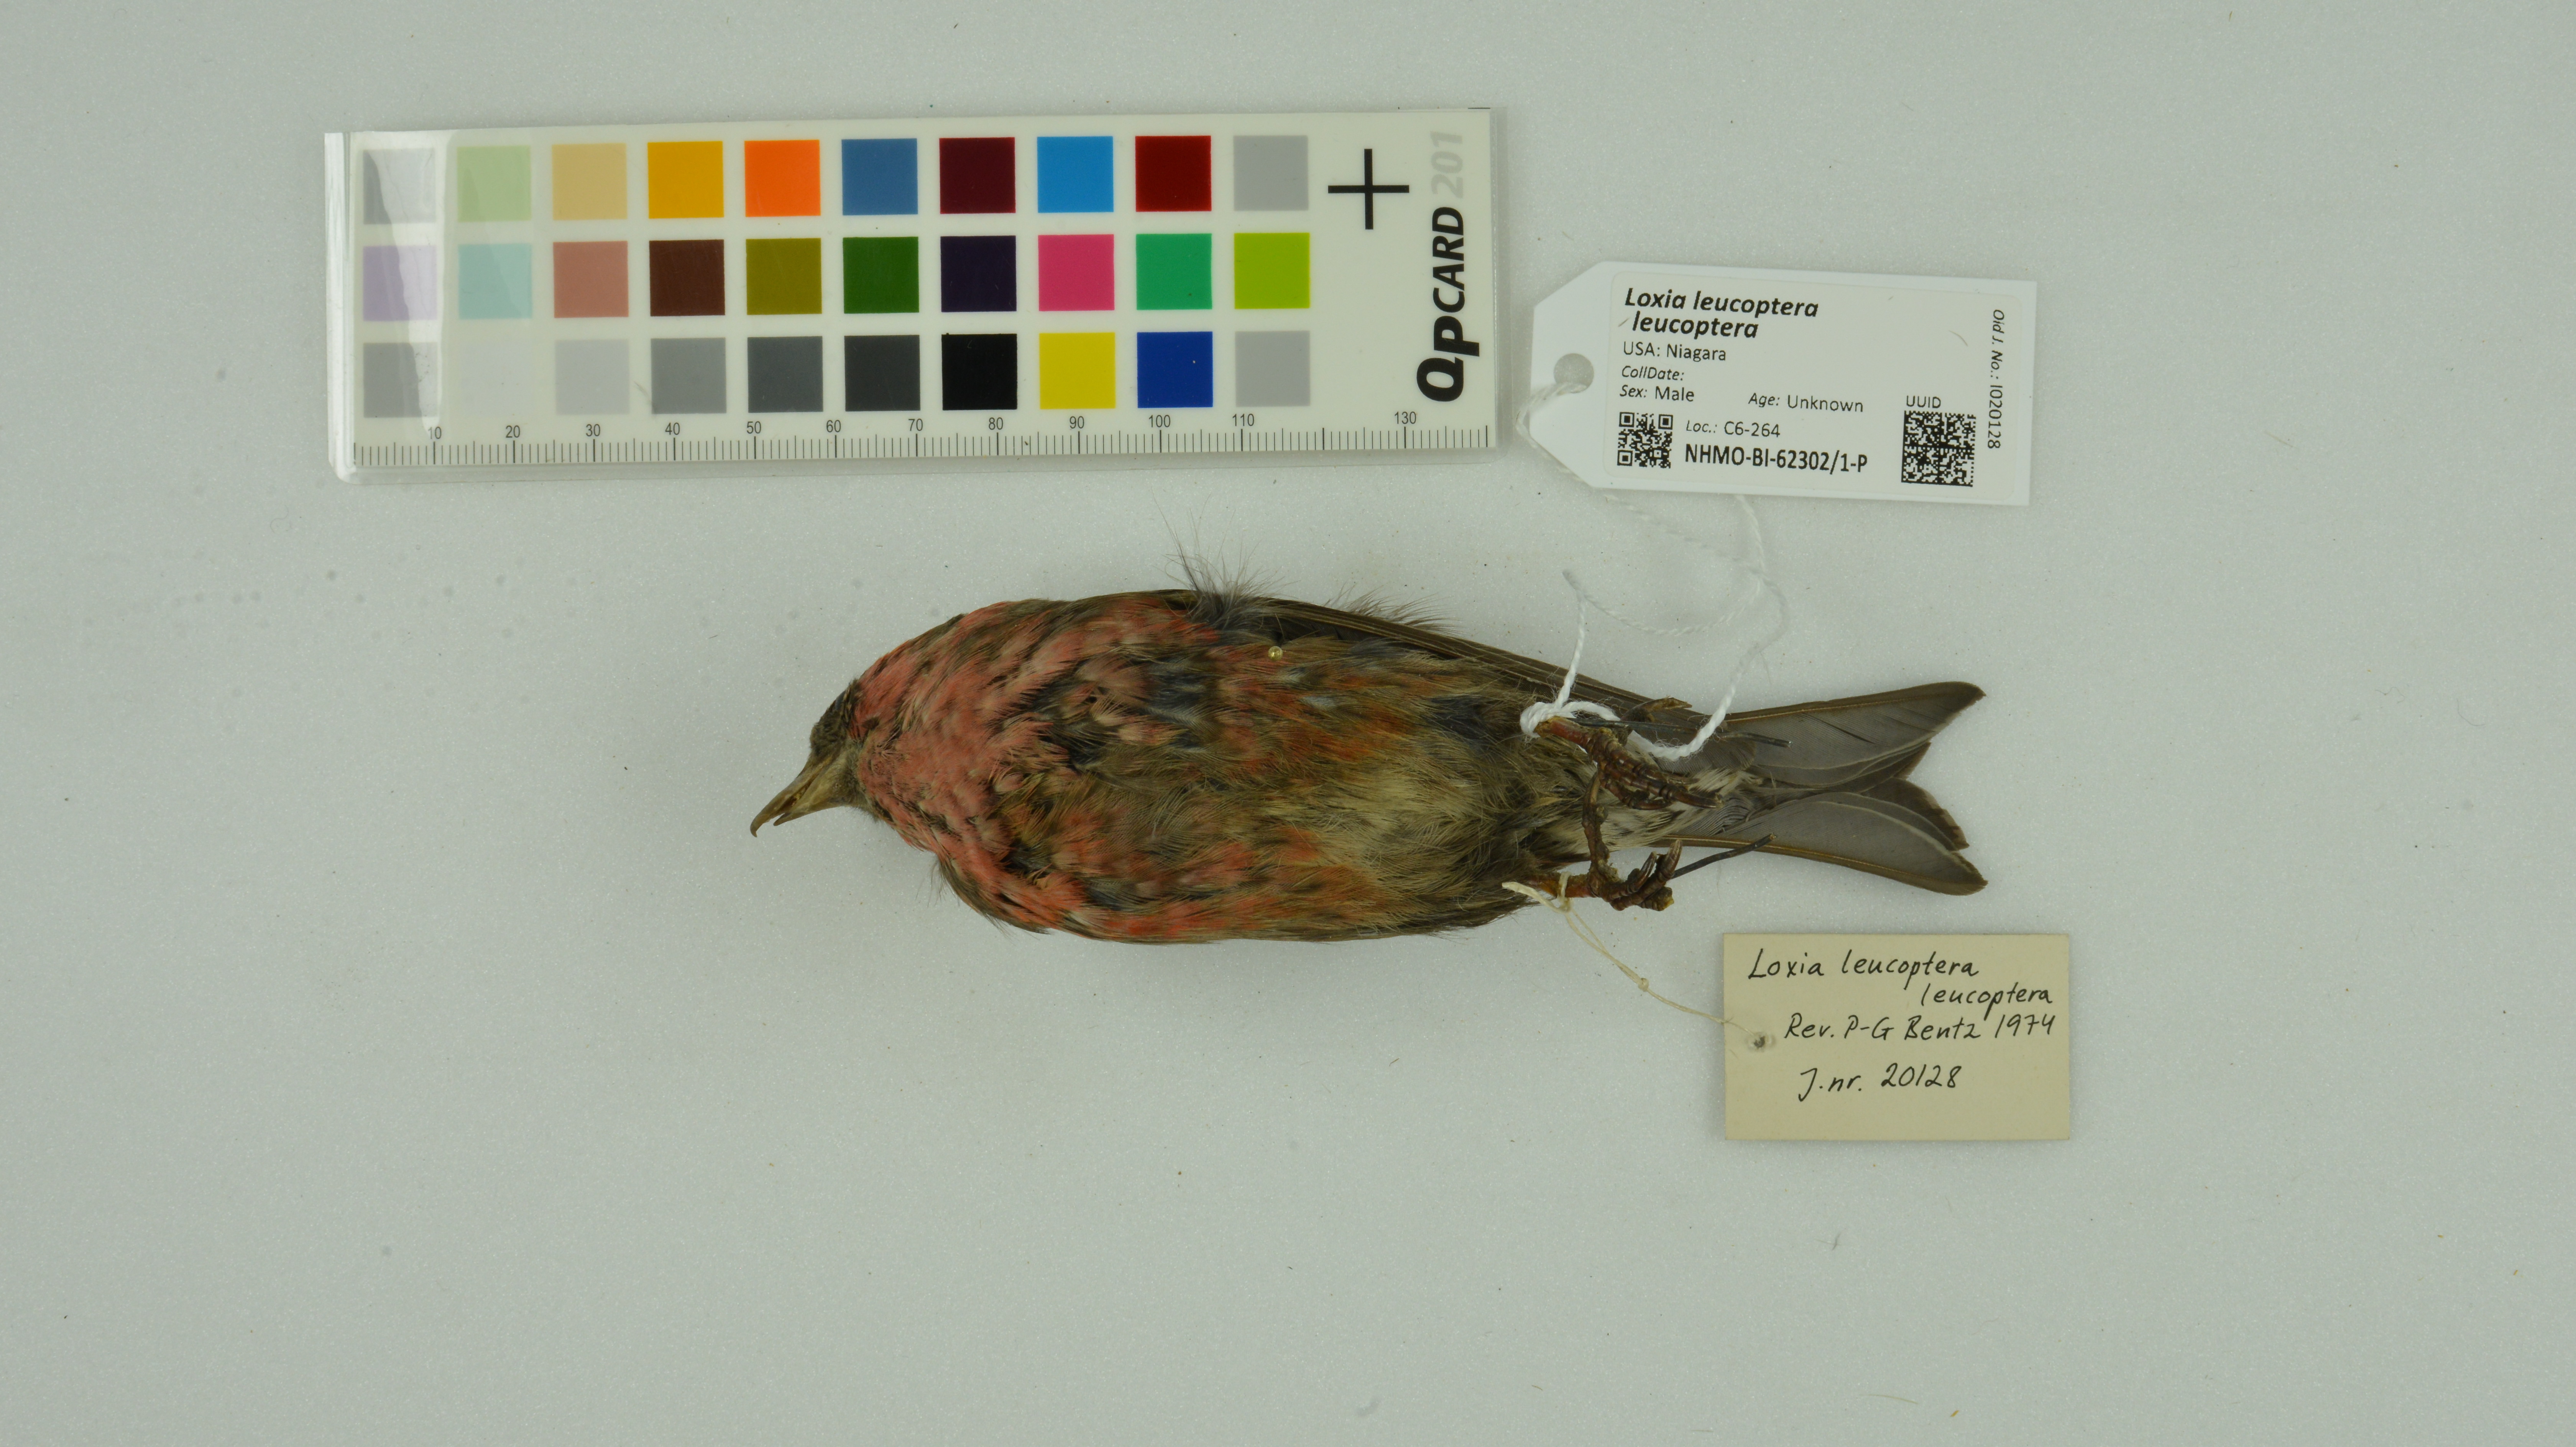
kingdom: Animalia
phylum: Chordata
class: Aves
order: Passeriformes
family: Fringillidae
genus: Loxia
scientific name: Loxia leucoptera
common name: Two-barred crossbill
